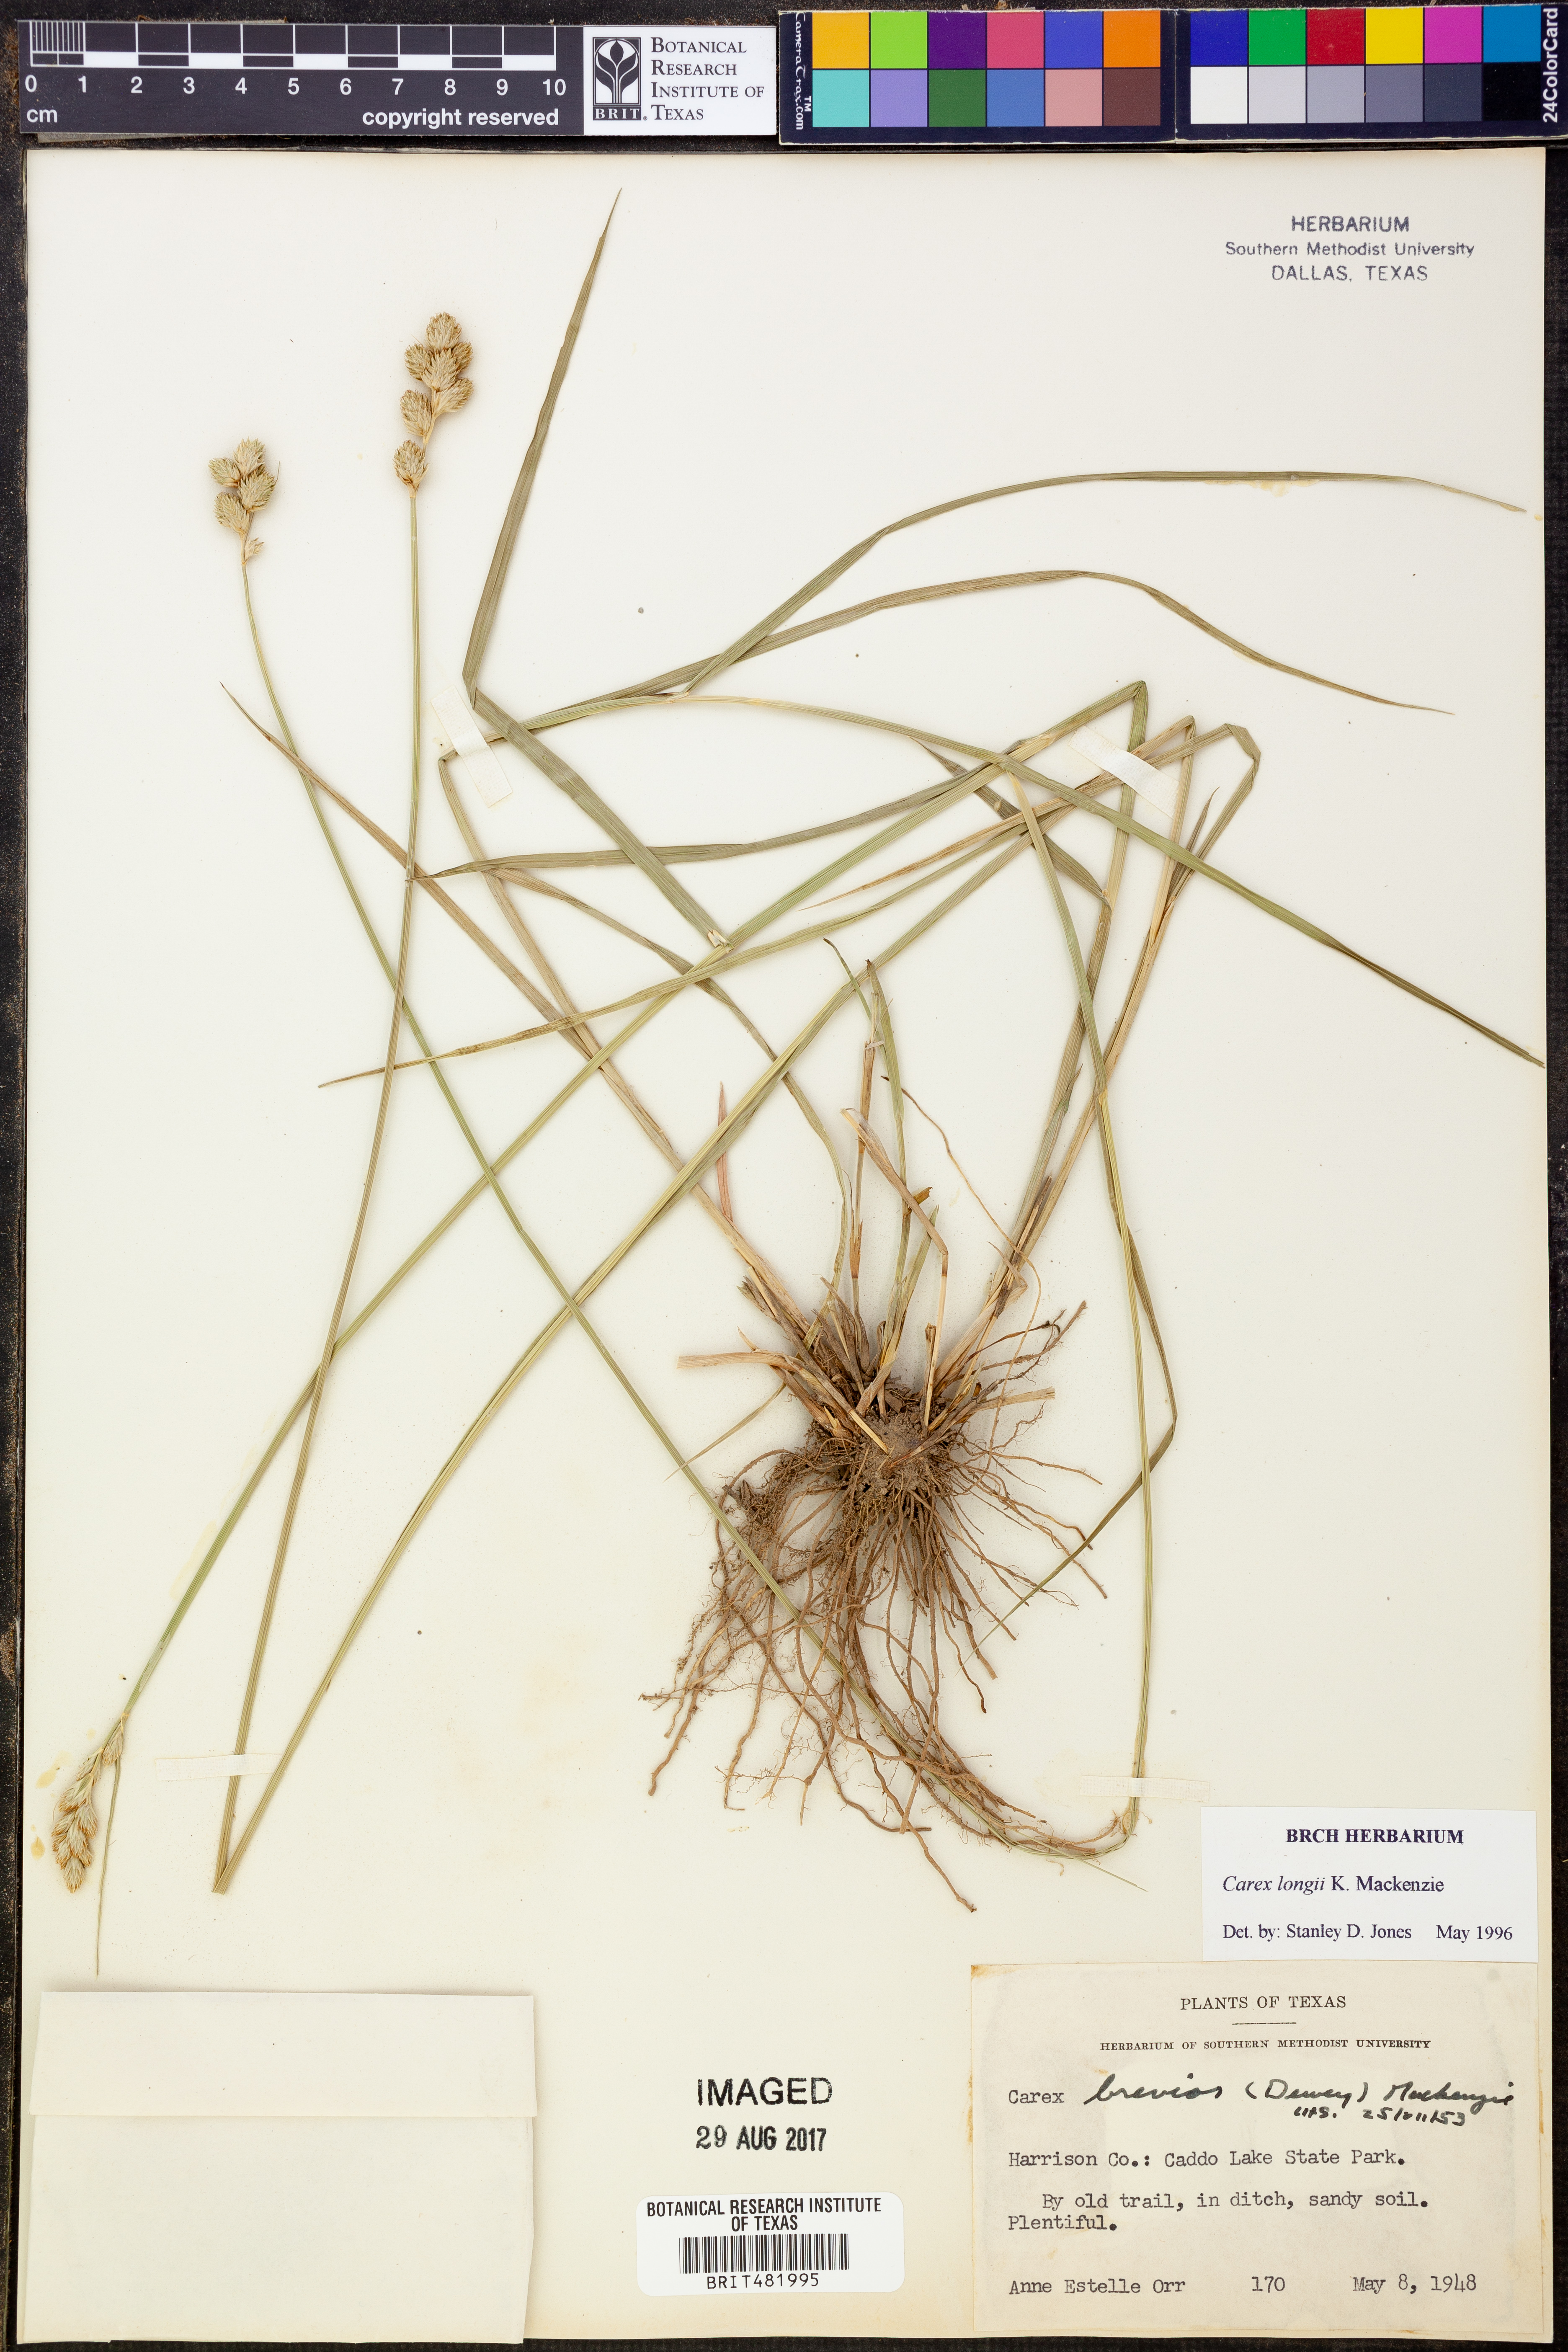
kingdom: Plantae
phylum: Tracheophyta
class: Liliopsida
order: Poales
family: Cyperaceae
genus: Carex
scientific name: Carex longii
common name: Long's sedge
